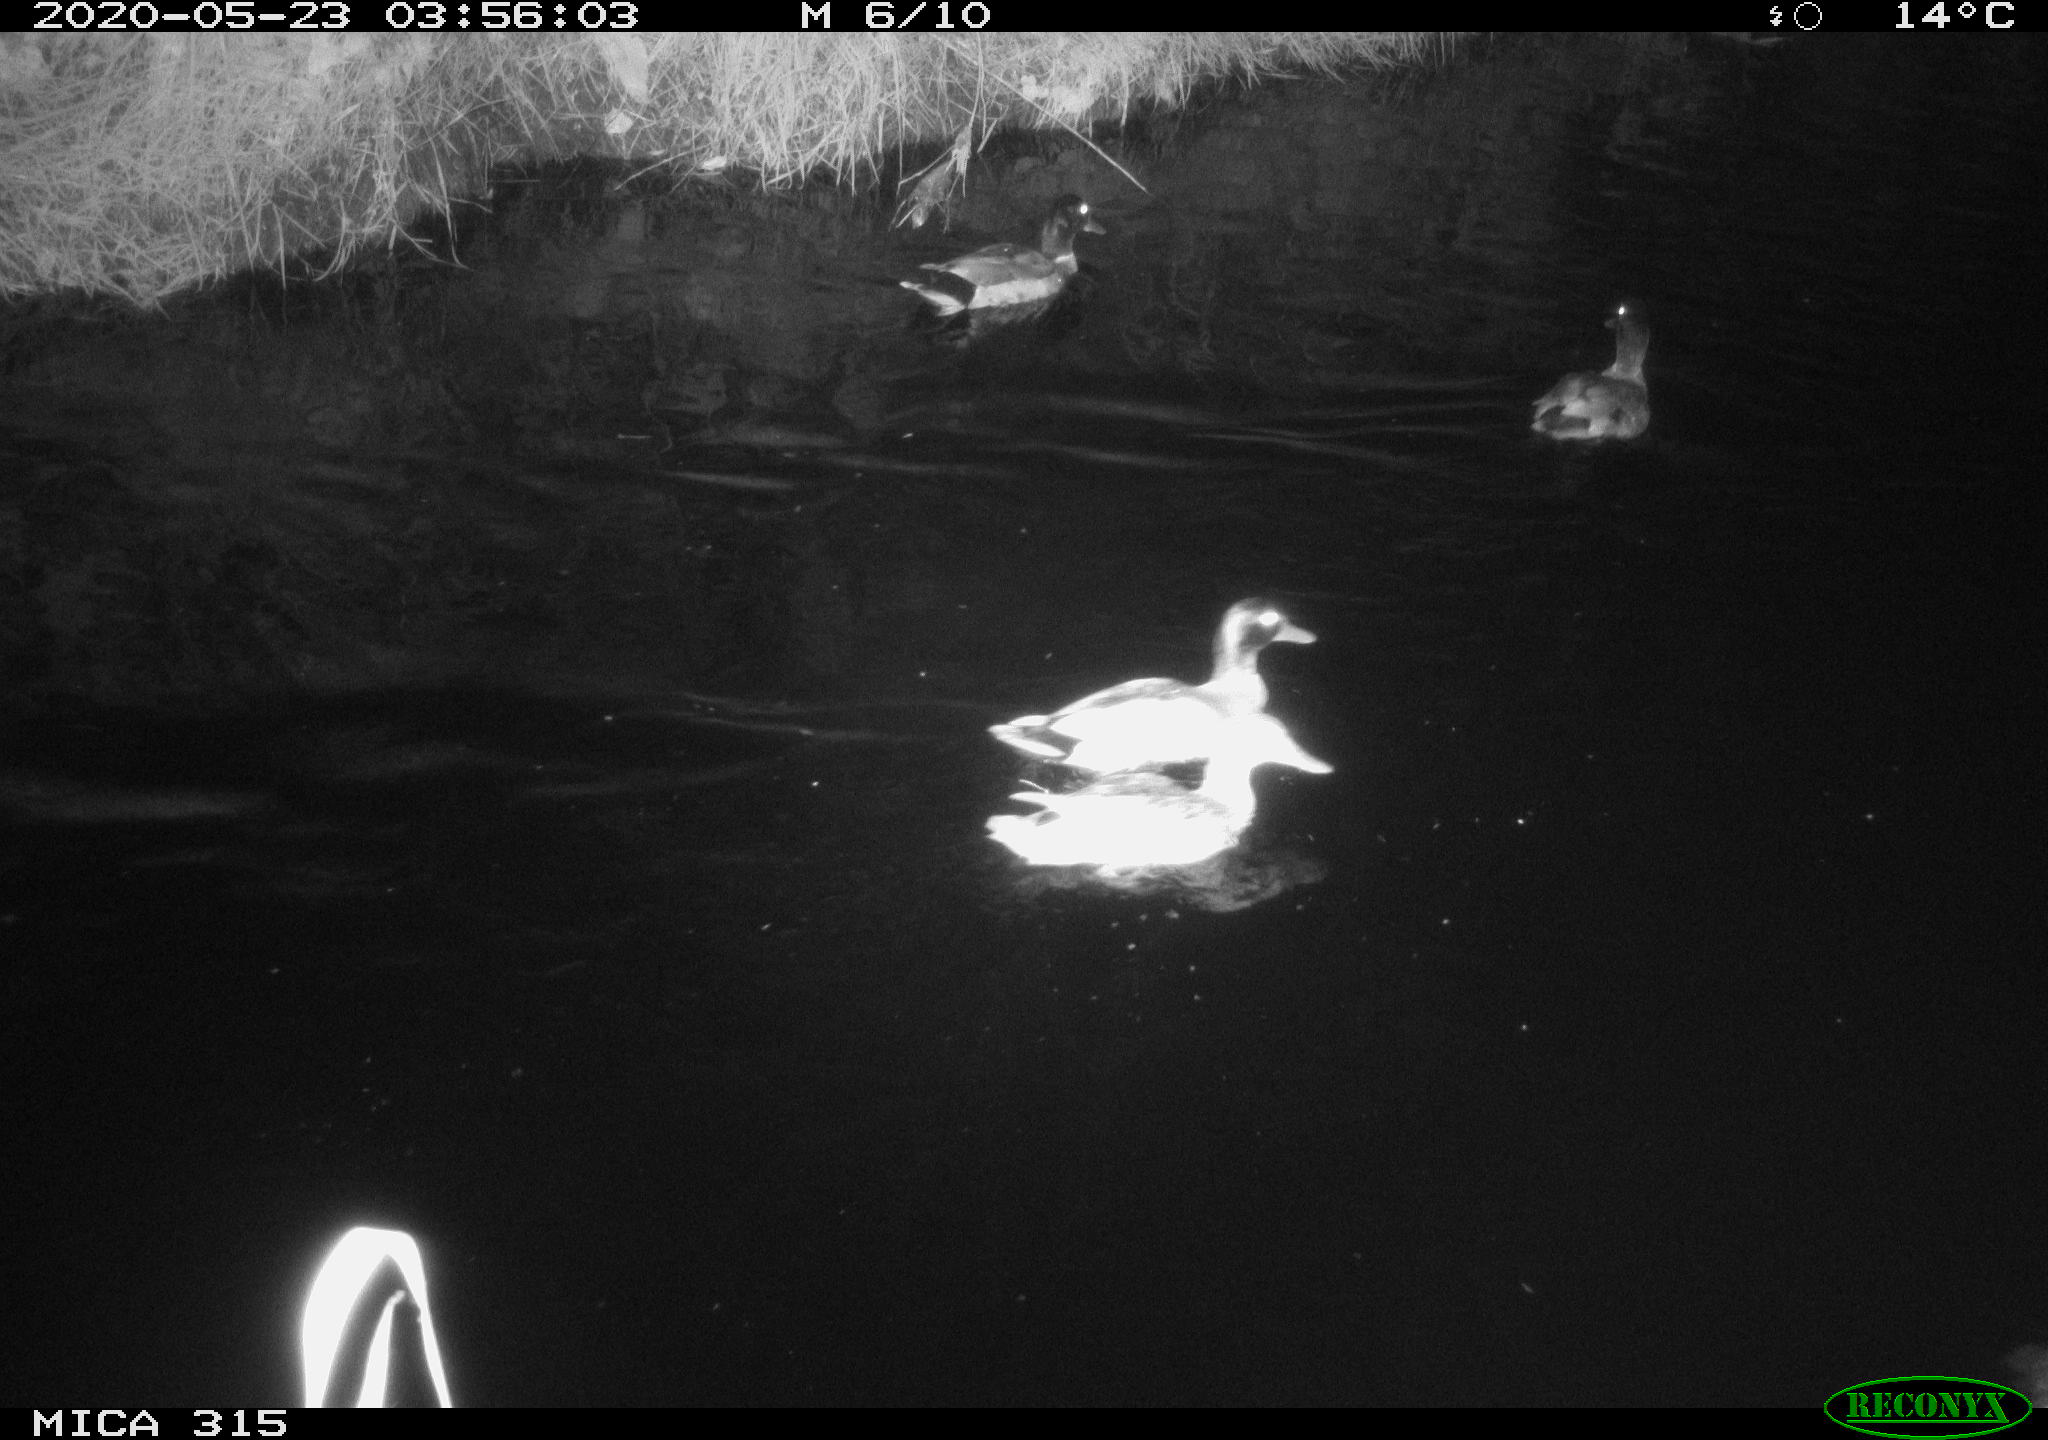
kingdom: Animalia
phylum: Chordata
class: Aves
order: Anseriformes
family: Anatidae
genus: Anas
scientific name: Anas platyrhynchos
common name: Mallard
